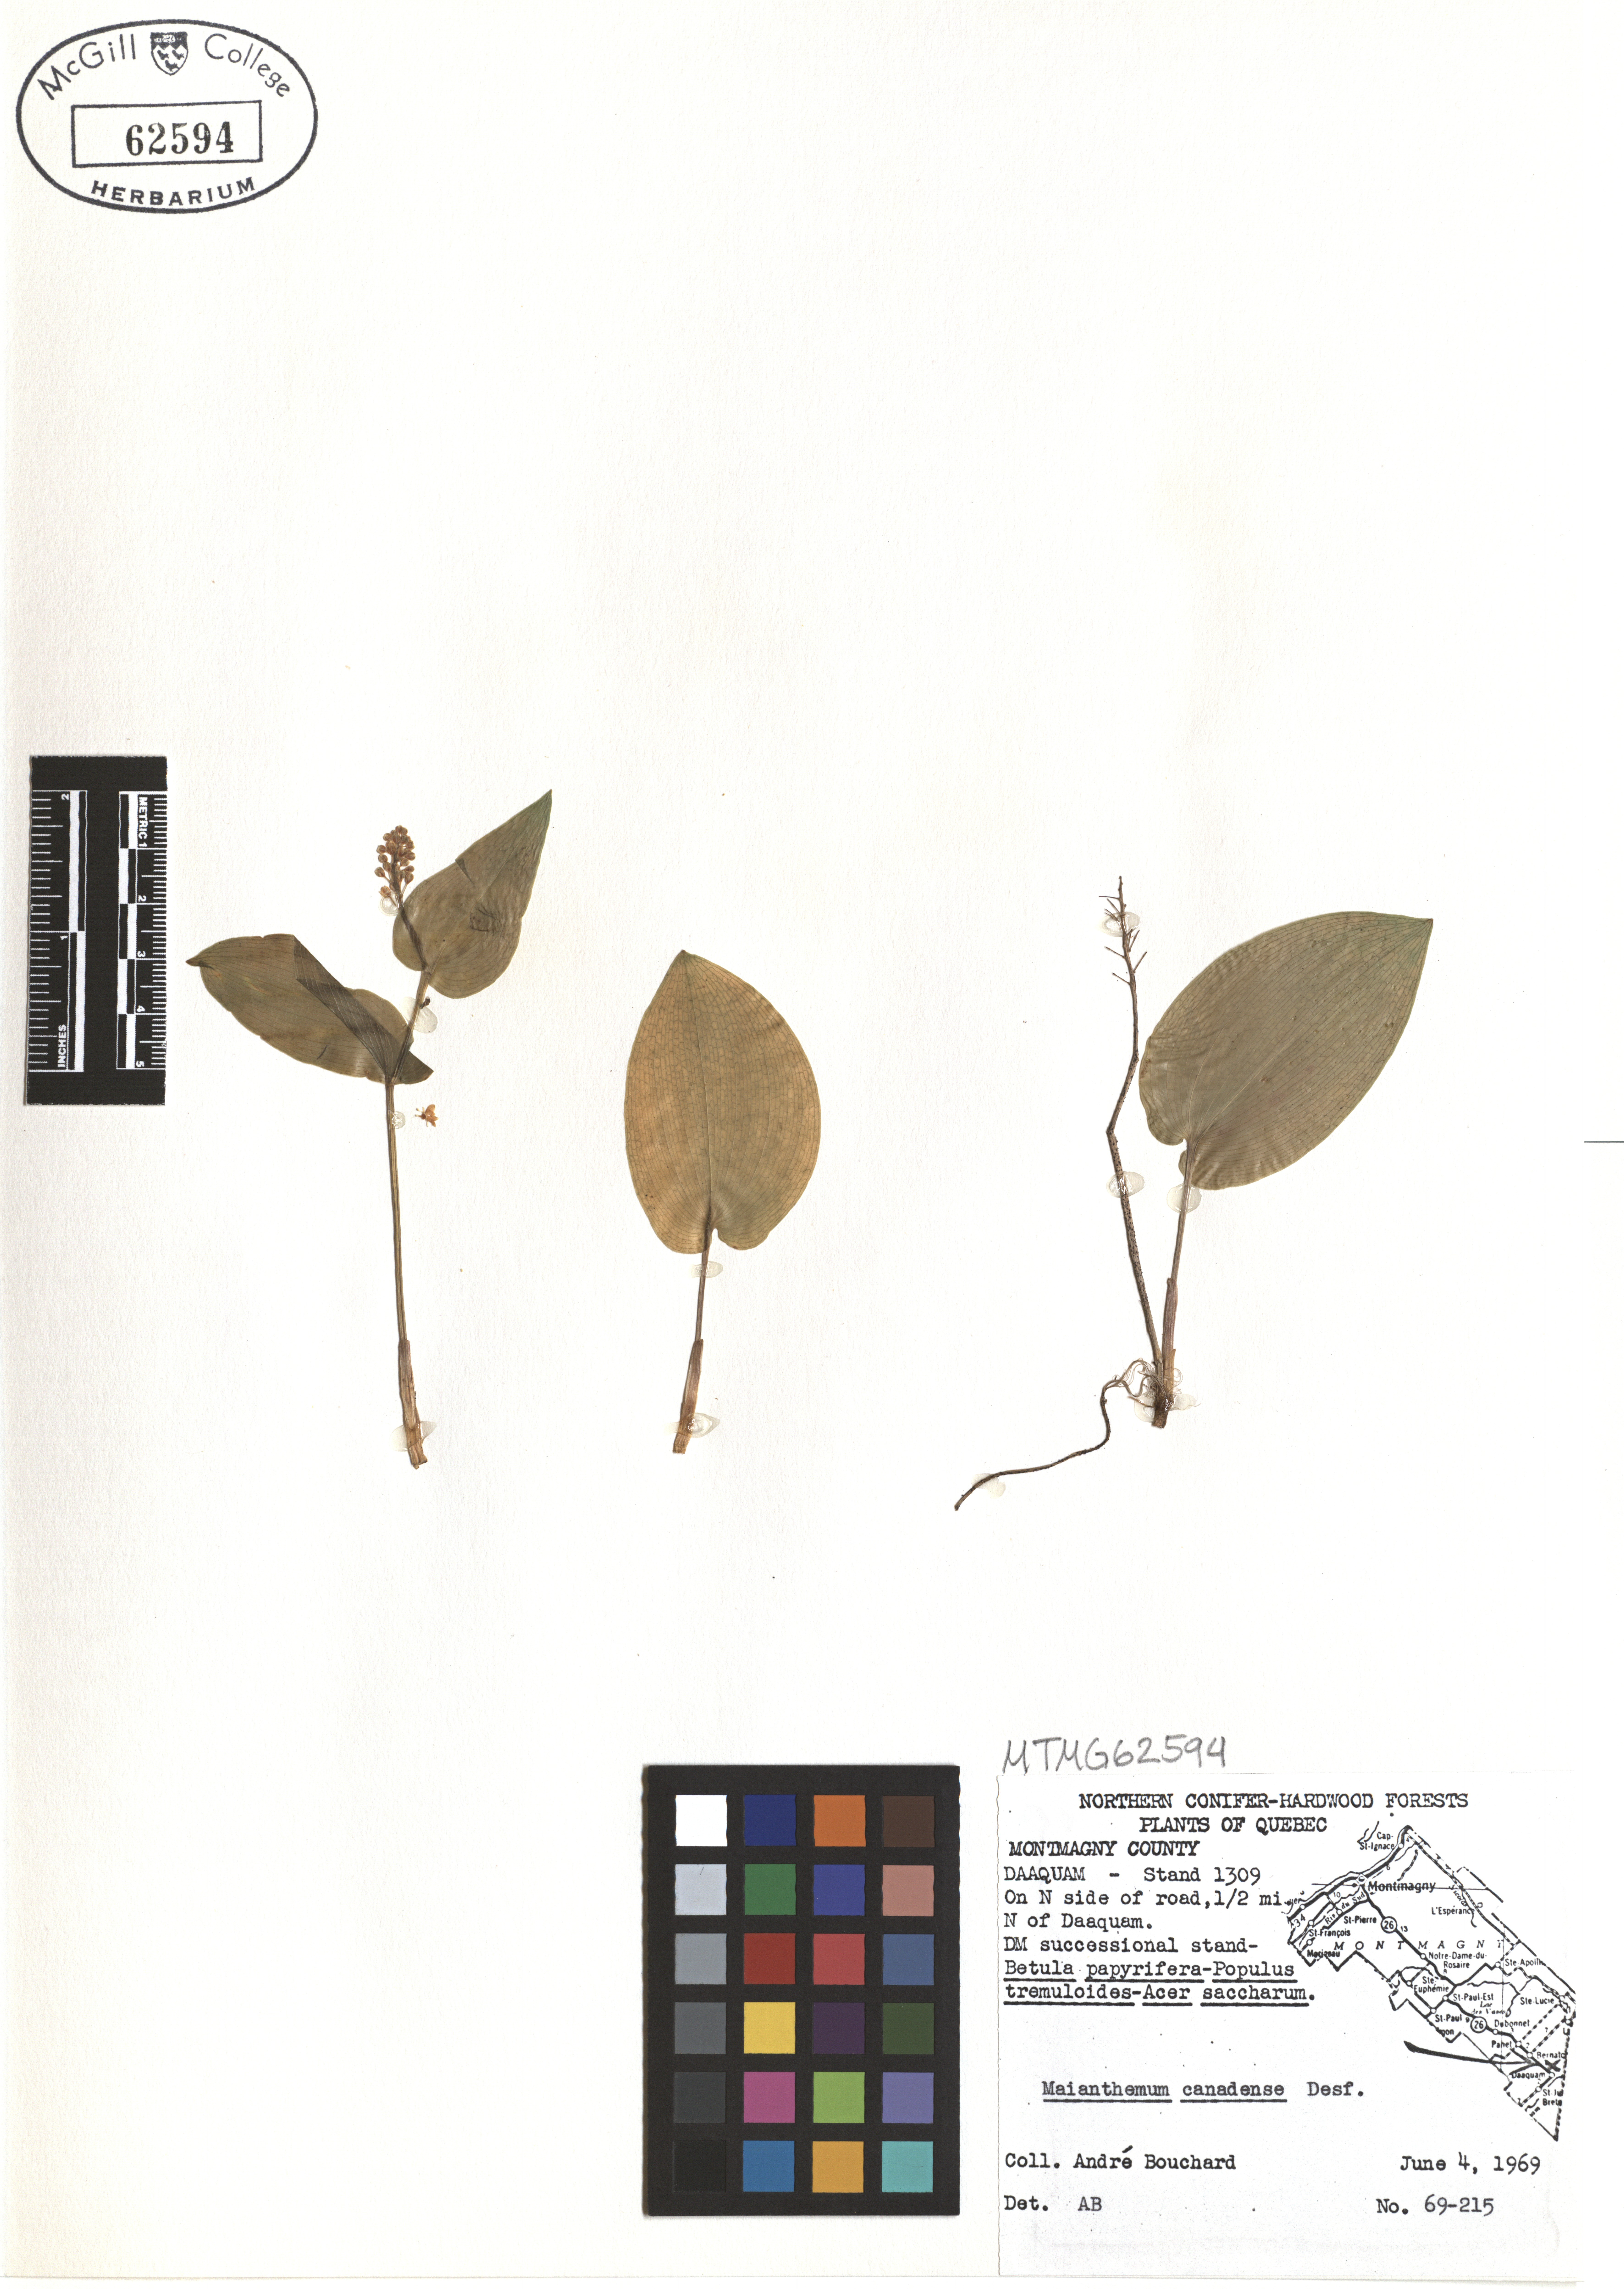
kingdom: Plantae
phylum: Tracheophyta
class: Liliopsida
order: Asparagales
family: Asparagaceae
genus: Maianthemum
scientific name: Maianthemum canadense
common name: False lily-of-the-valley
